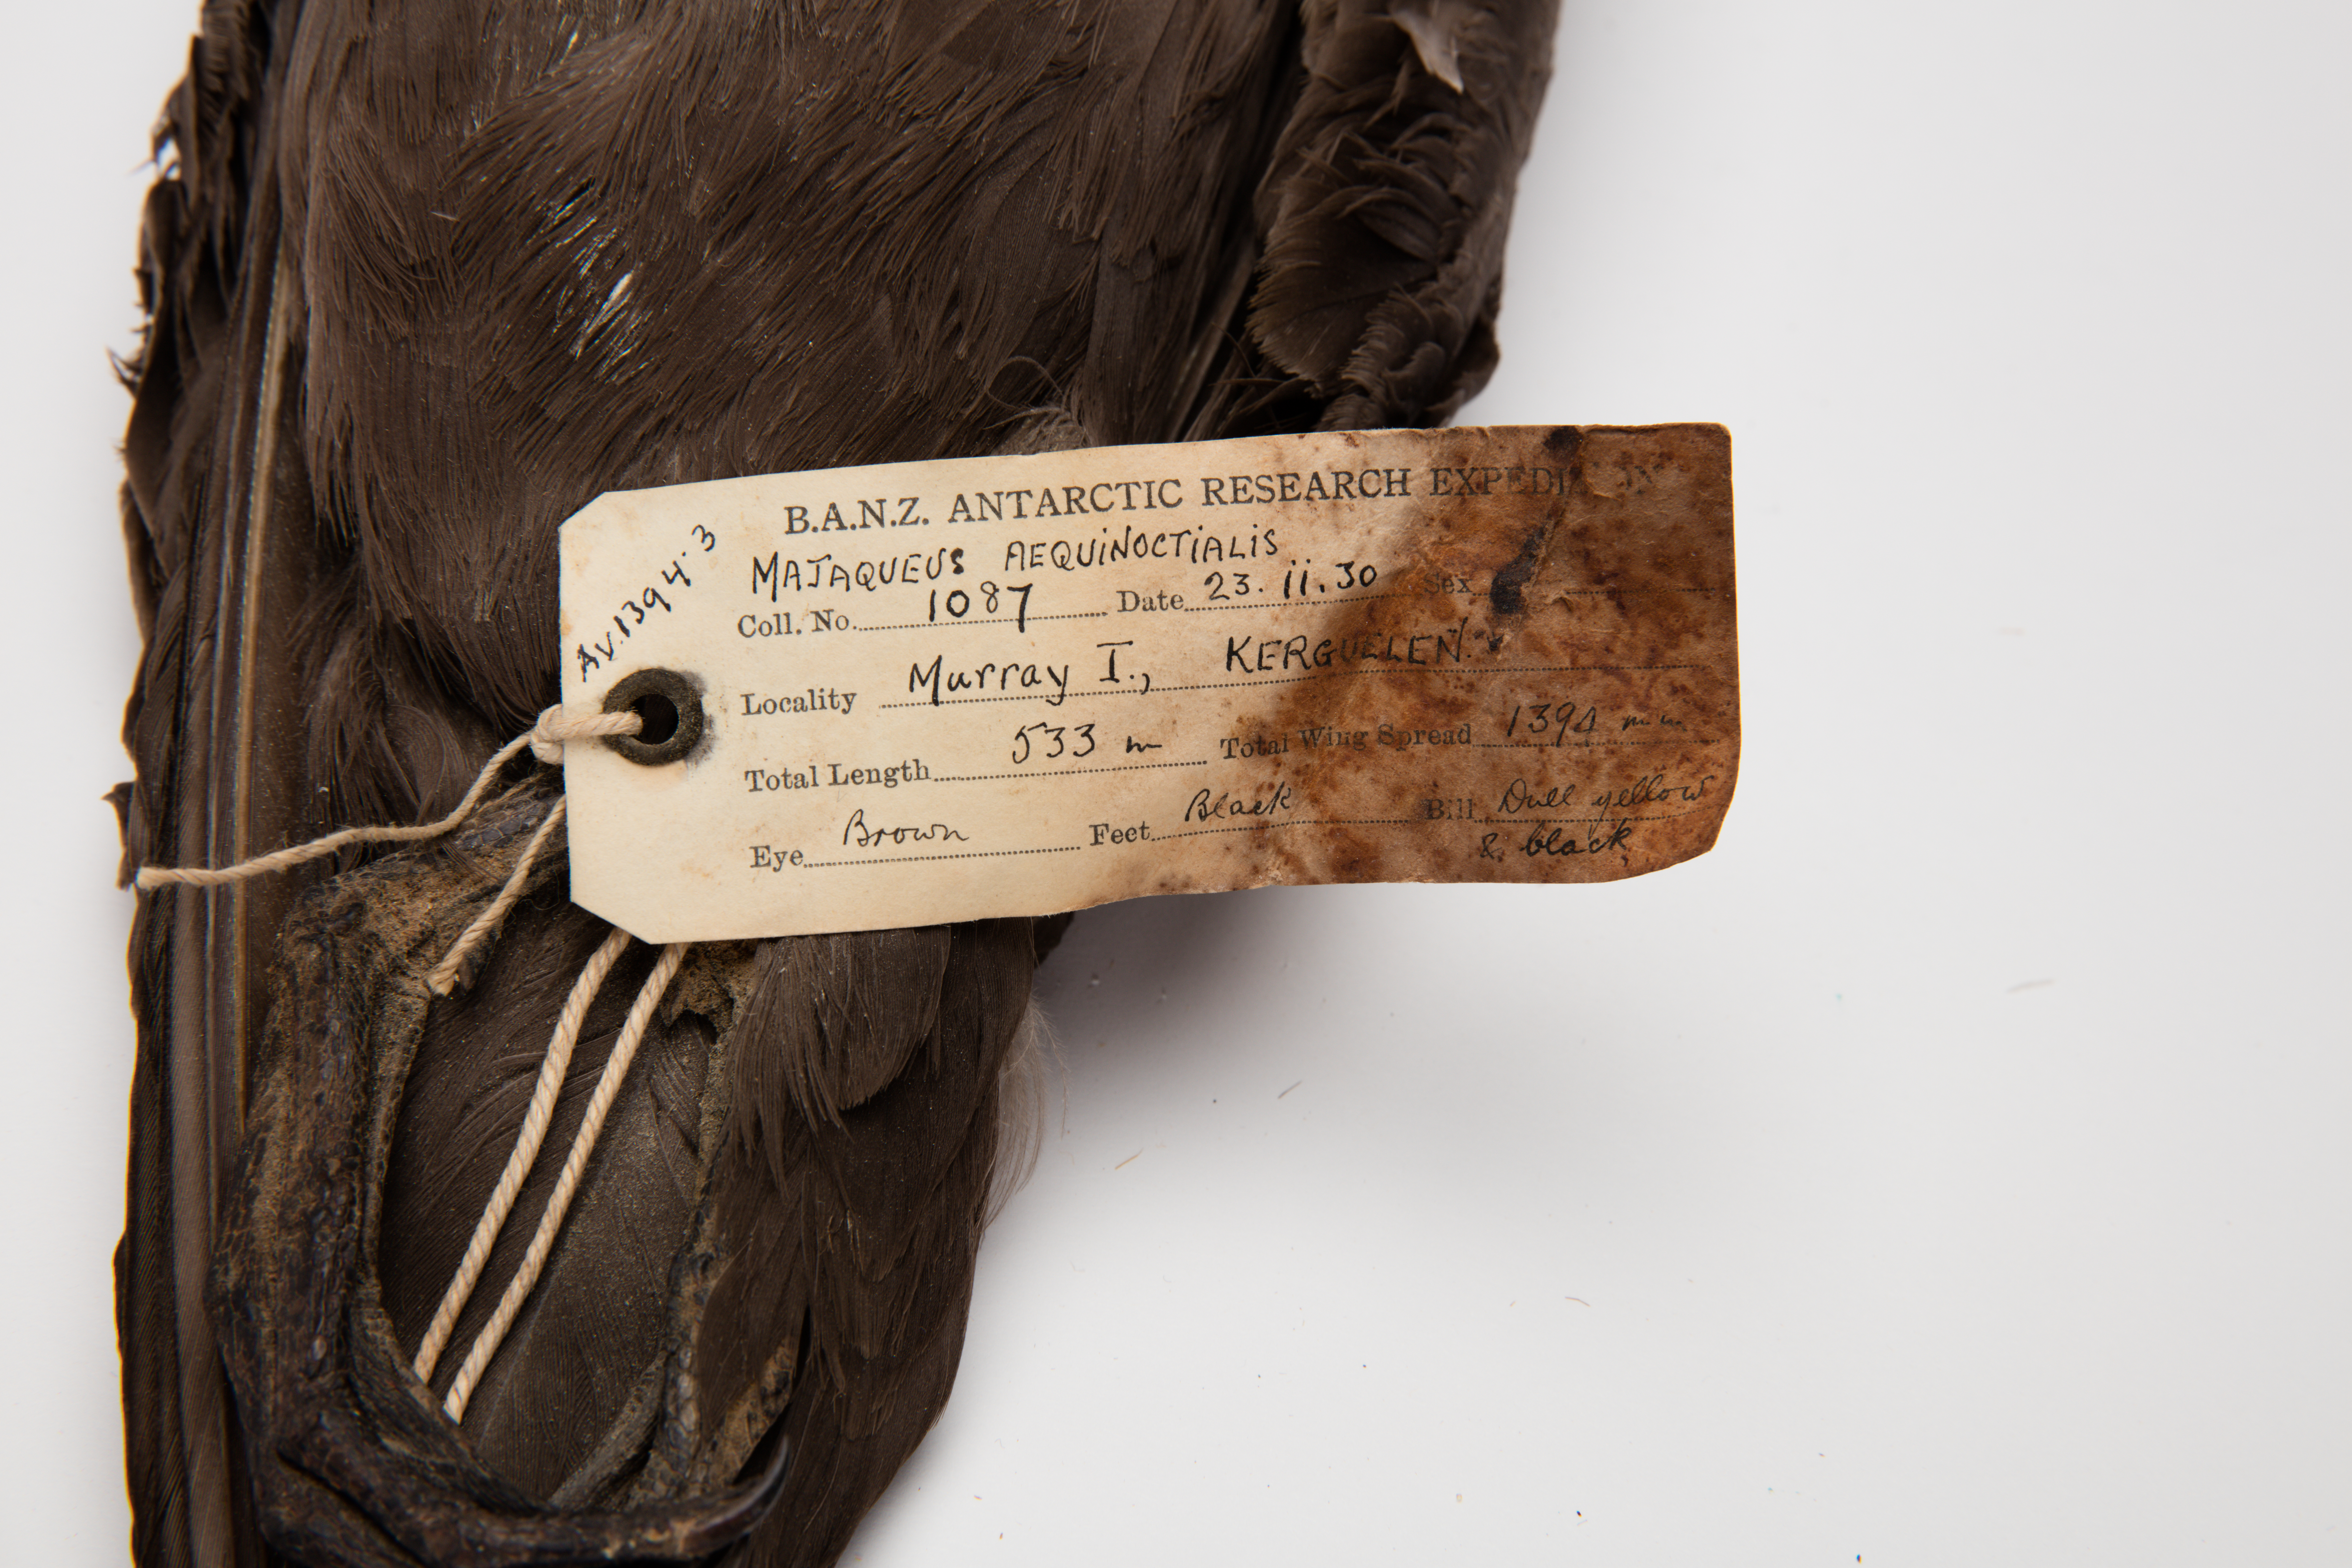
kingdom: Animalia
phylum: Chordata
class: Aves
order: Procellariiformes
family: Procellariidae
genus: Procellaria
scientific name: Procellaria aequinoctialis
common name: White-chinned petrel
